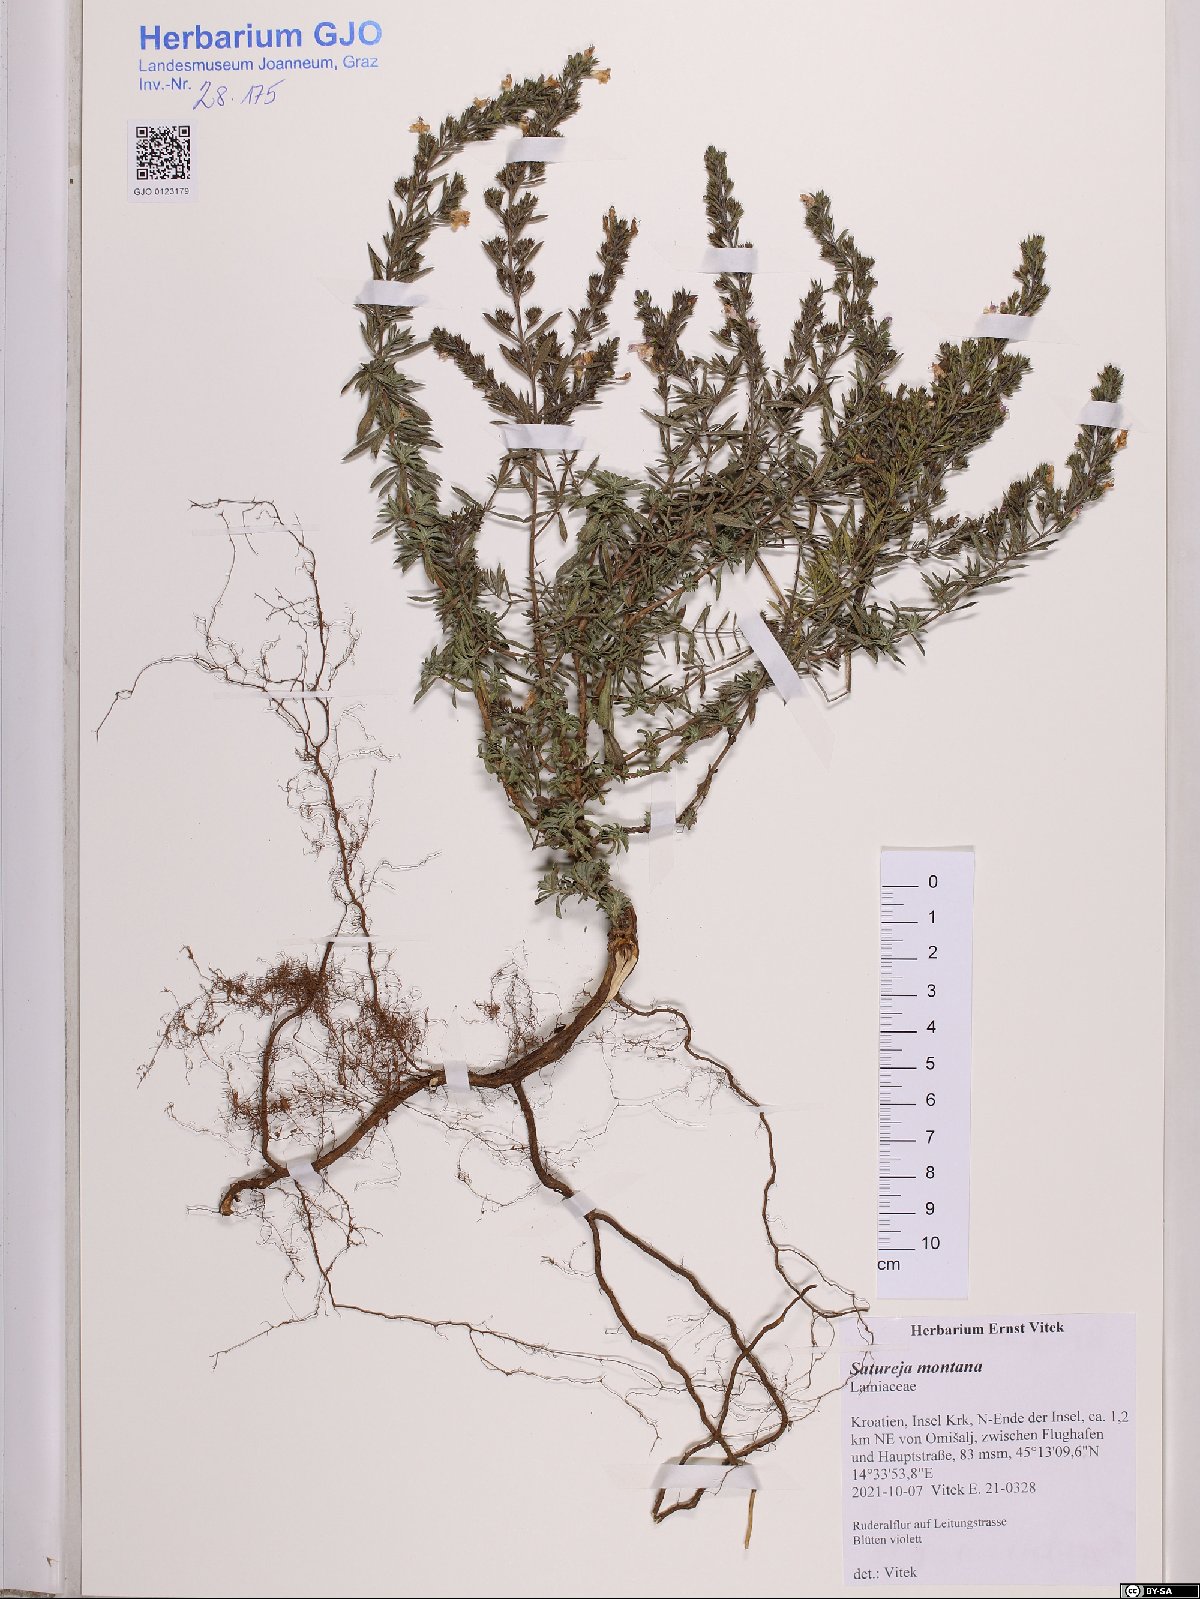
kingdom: Plantae
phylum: Tracheophyta
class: Magnoliopsida
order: Lamiales
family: Lamiaceae
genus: Satureja
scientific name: Satureja montana
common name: Winter savory
